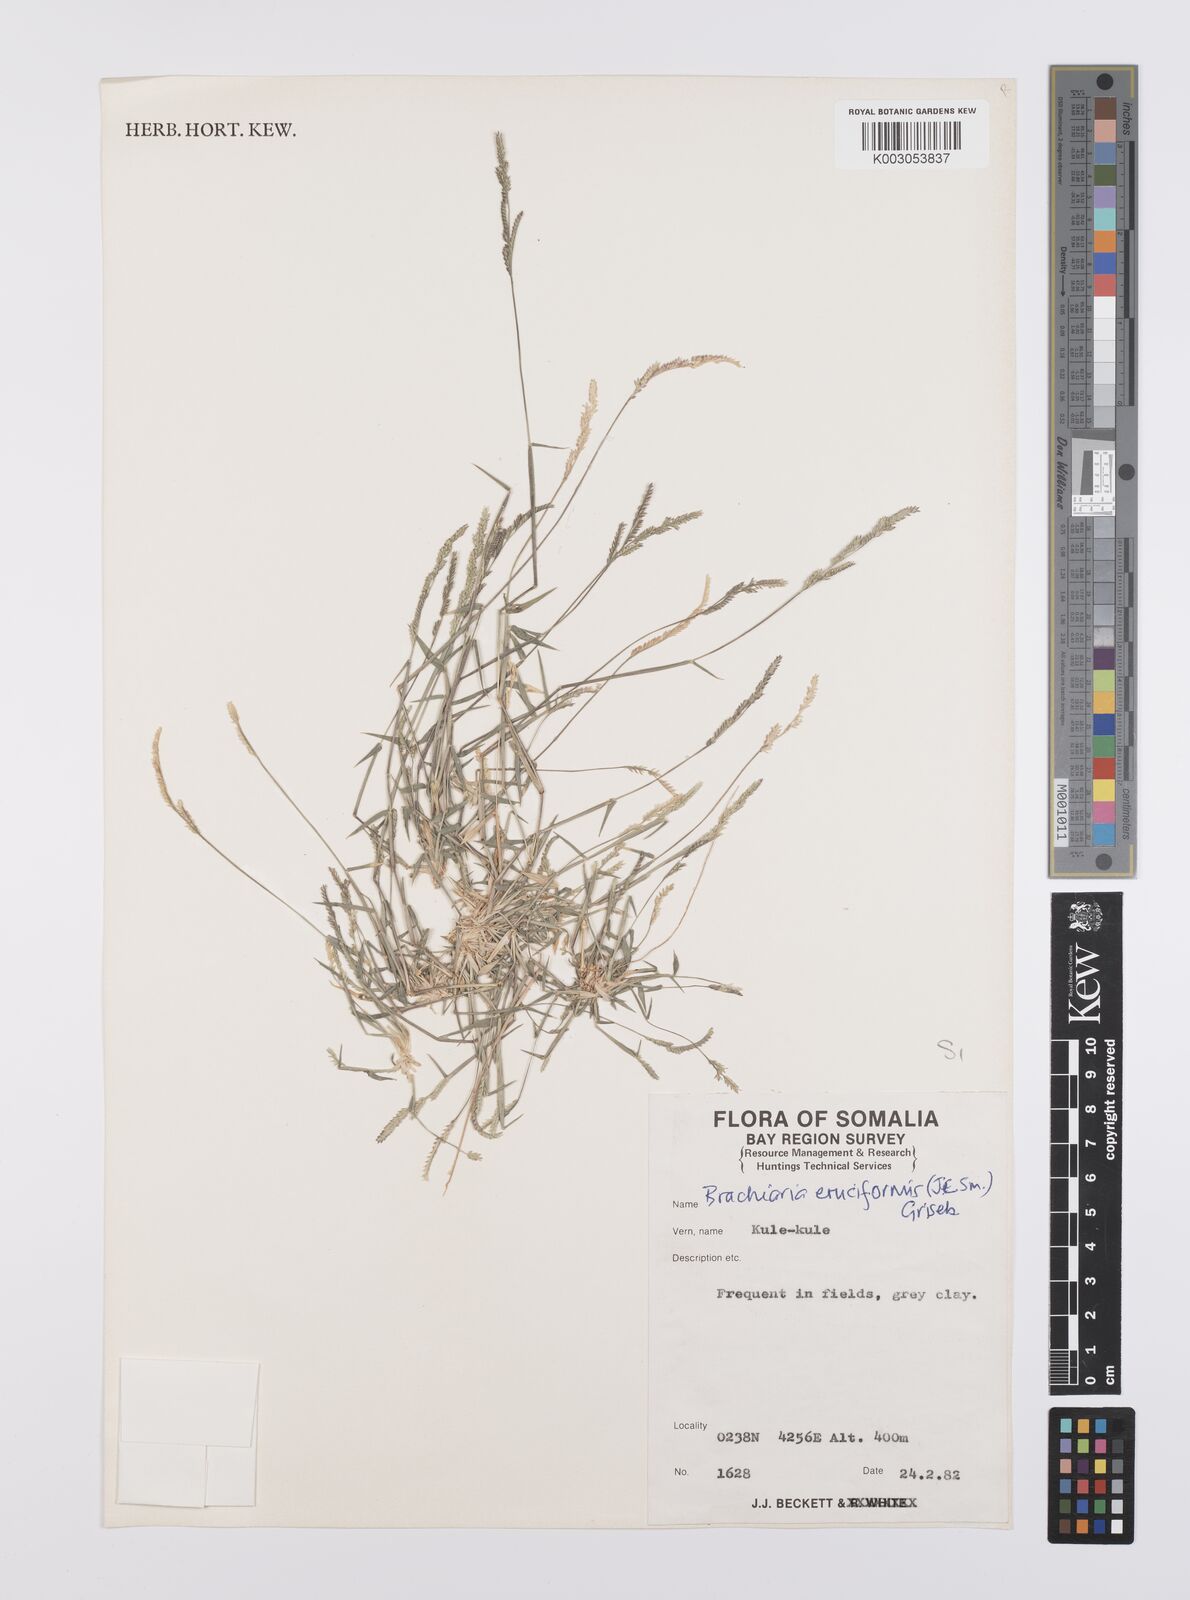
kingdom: Plantae
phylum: Tracheophyta
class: Liliopsida
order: Poales
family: Poaceae
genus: Moorochloa
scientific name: Moorochloa eruciformis
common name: Sweet signalgrass
